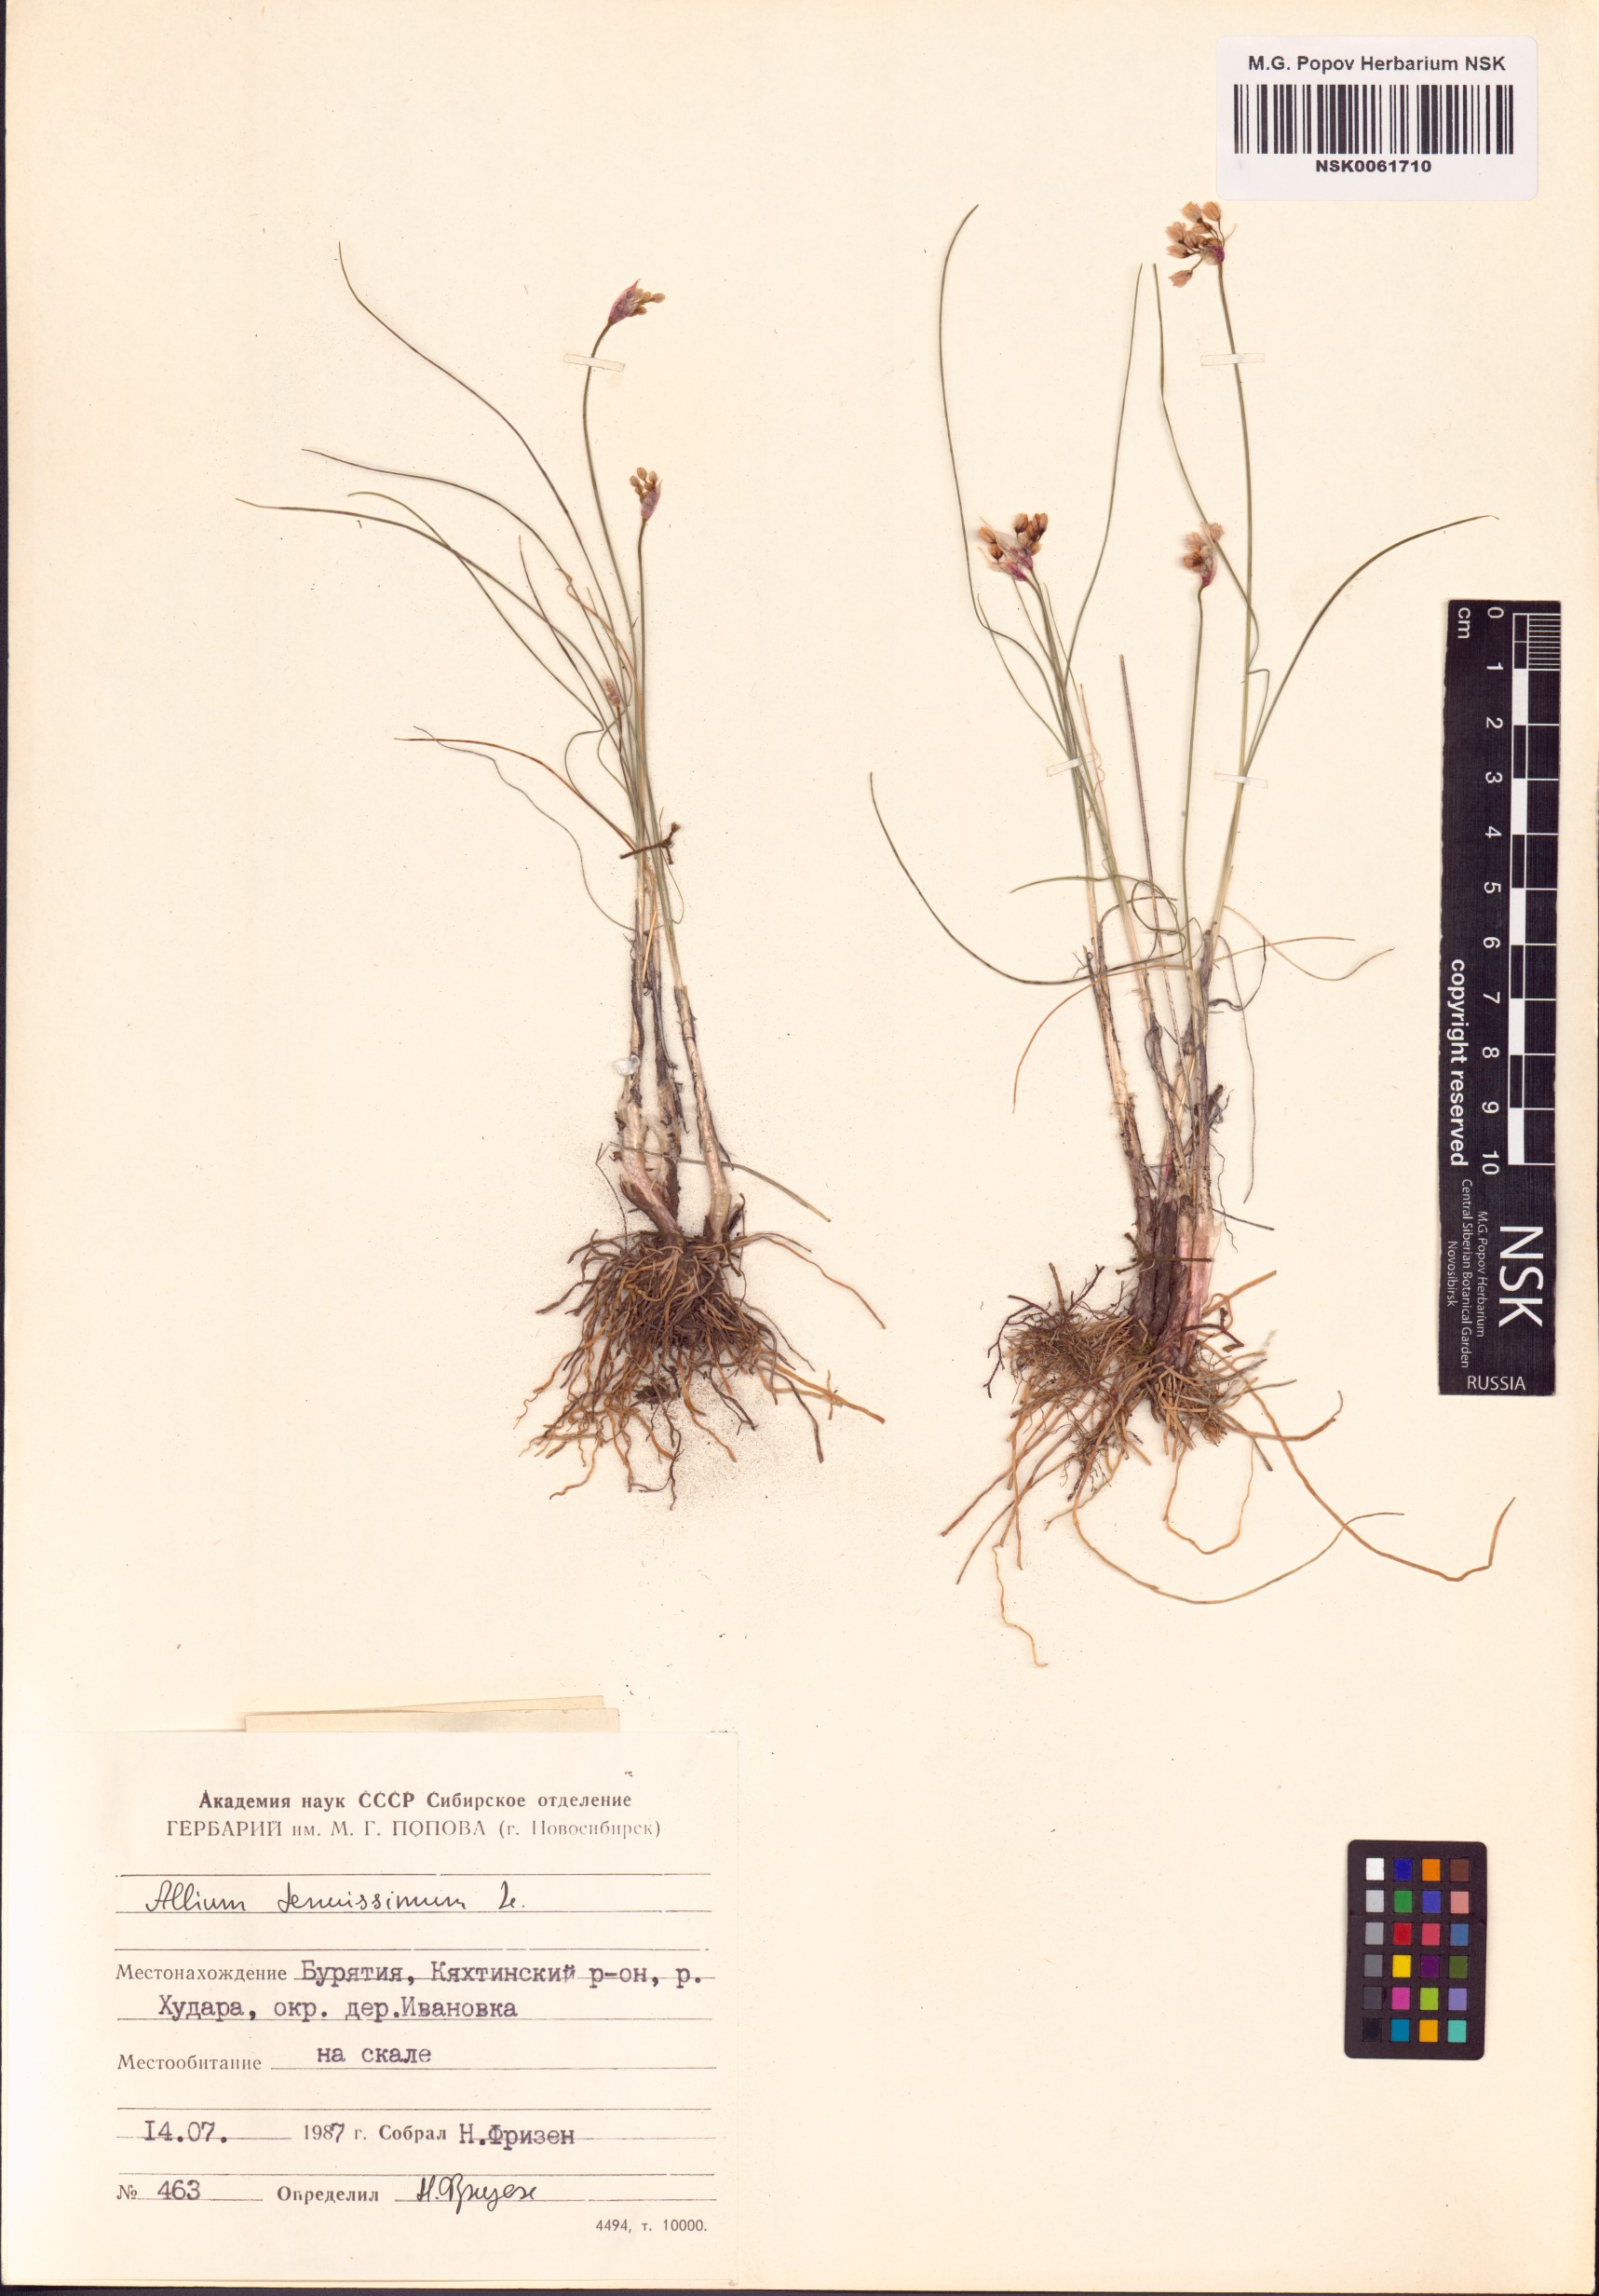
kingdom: Plantae
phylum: Tracheophyta
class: Liliopsida
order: Asparagales
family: Amaryllidaceae
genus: Allium
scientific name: Allium tenuissimum
